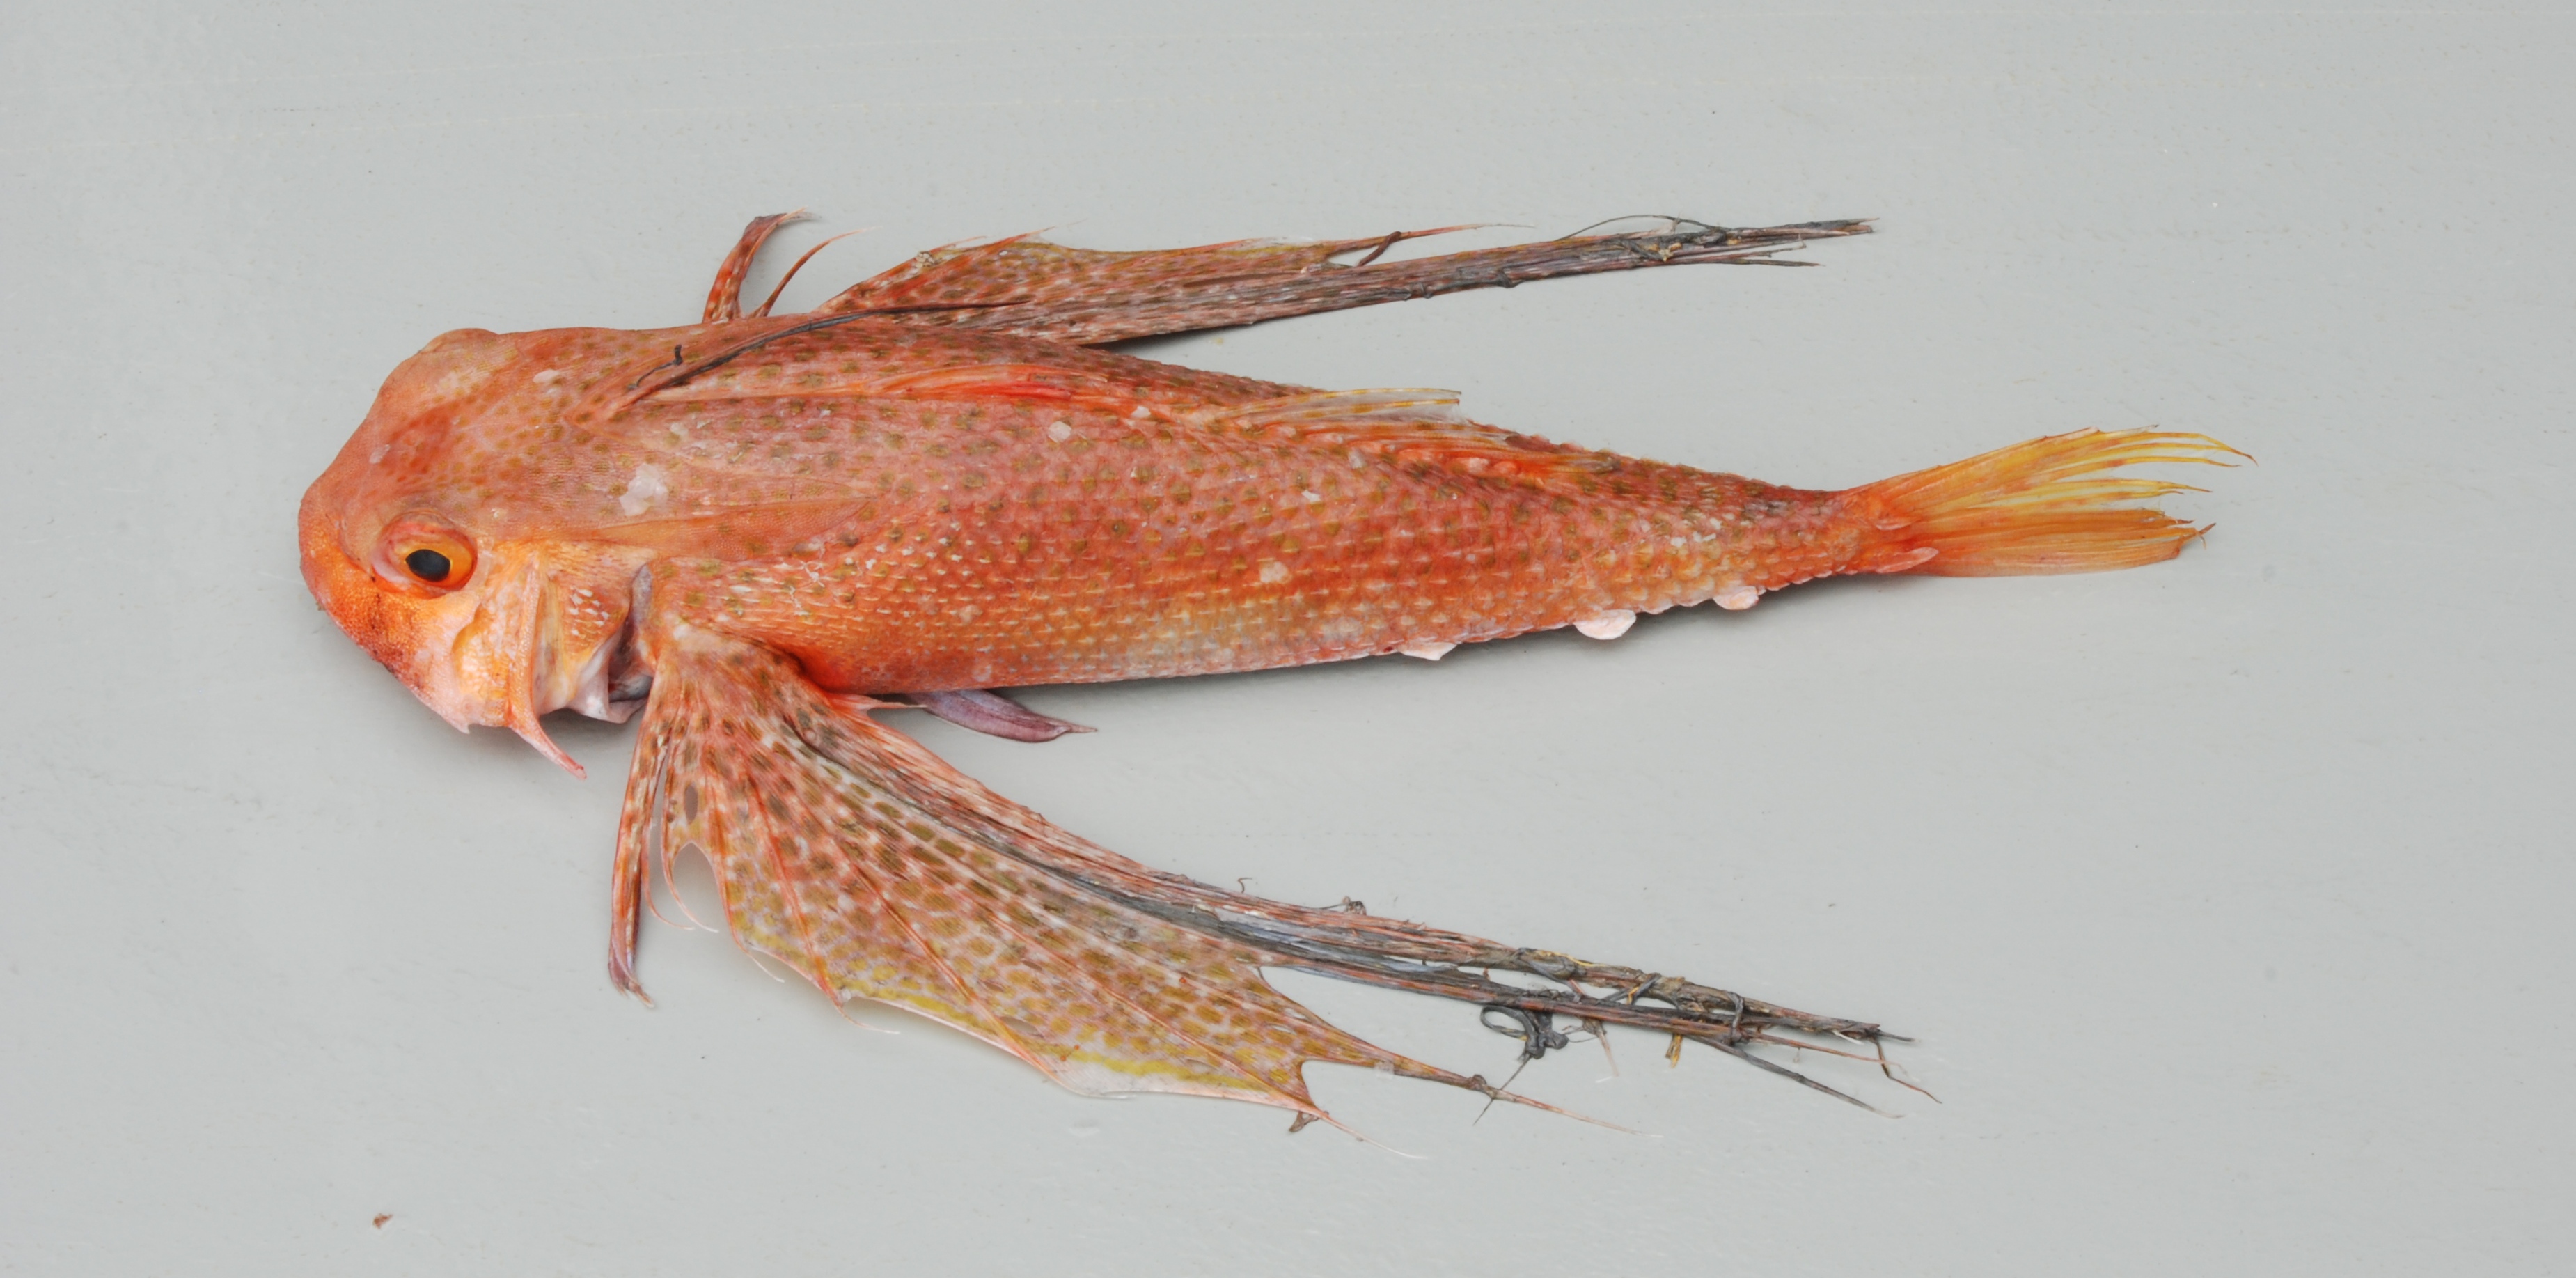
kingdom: Animalia
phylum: Chordata
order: Scorpaeniformes
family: Dactylopteridae
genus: Dactyloptena
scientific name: Dactyloptena peterseni
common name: Starry helmet gurnard
